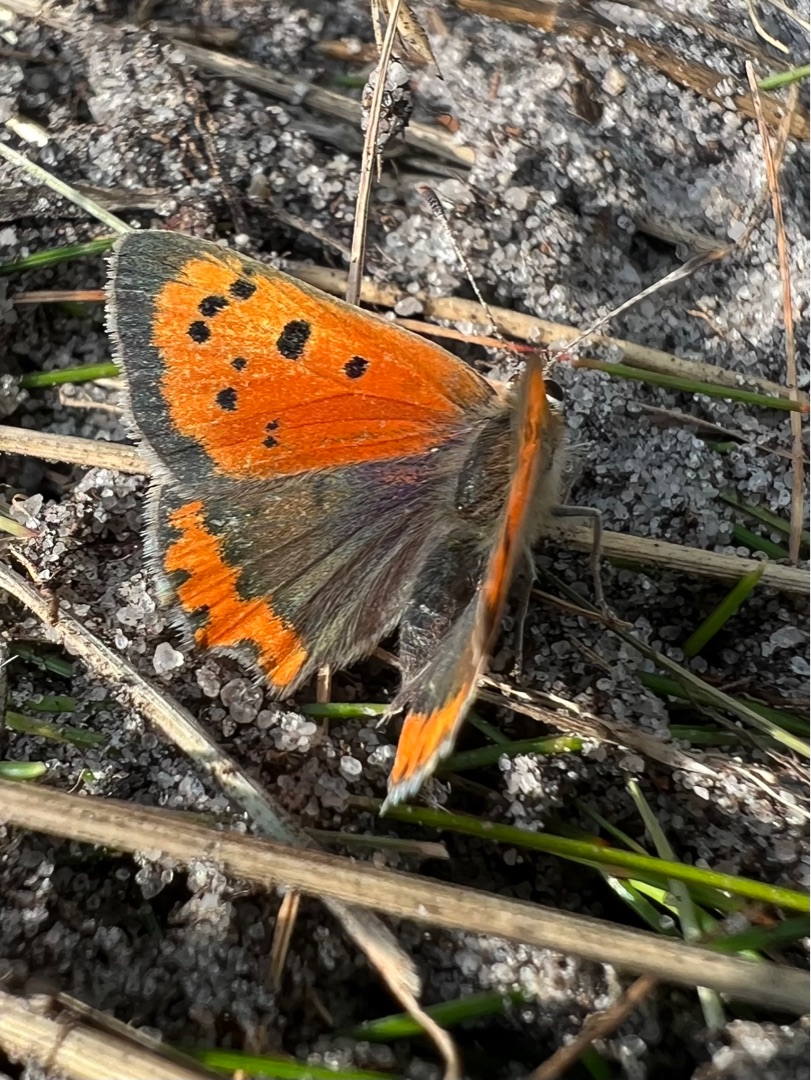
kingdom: Animalia
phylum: Arthropoda
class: Insecta
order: Lepidoptera
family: Lycaenidae
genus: Lycaena
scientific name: Lycaena phlaeas
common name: Lille ildfugl
